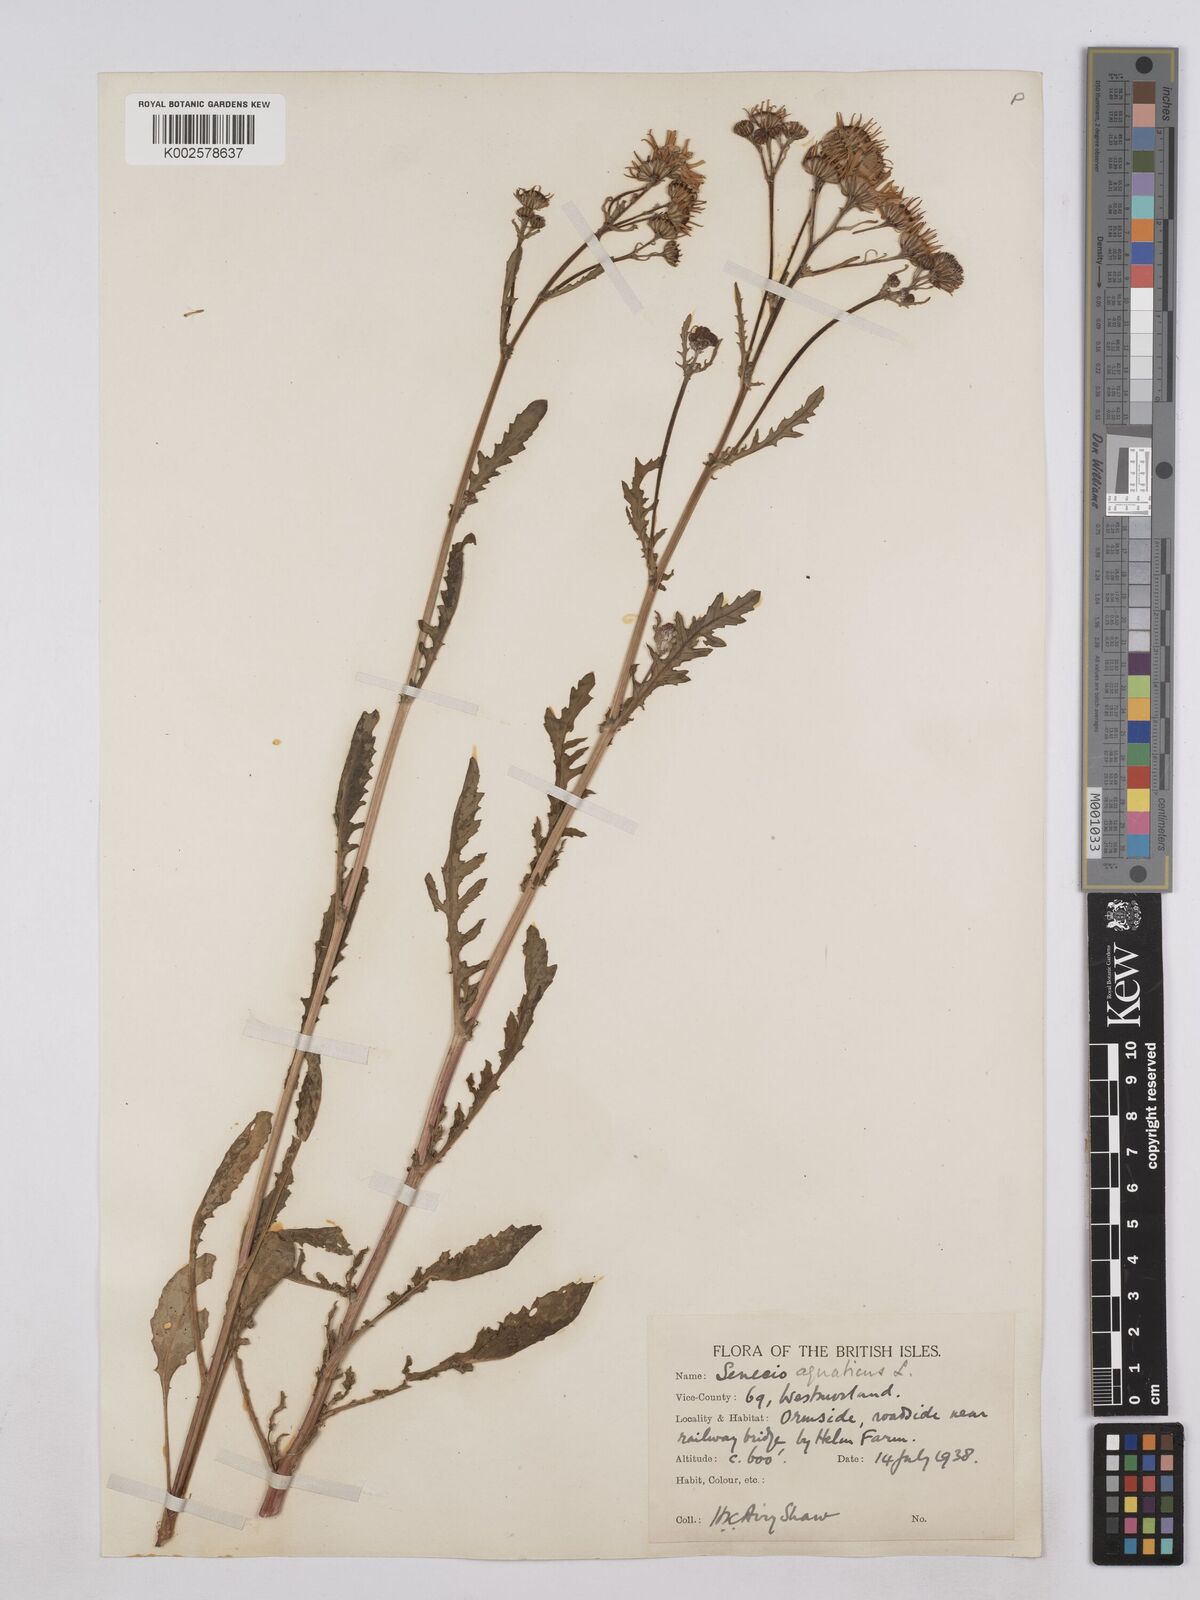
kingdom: Plantae
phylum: Tracheophyta
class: Magnoliopsida
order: Asterales
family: Asteraceae
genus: Jacobaea
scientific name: Jacobaea aquatica
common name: Water ragwort
